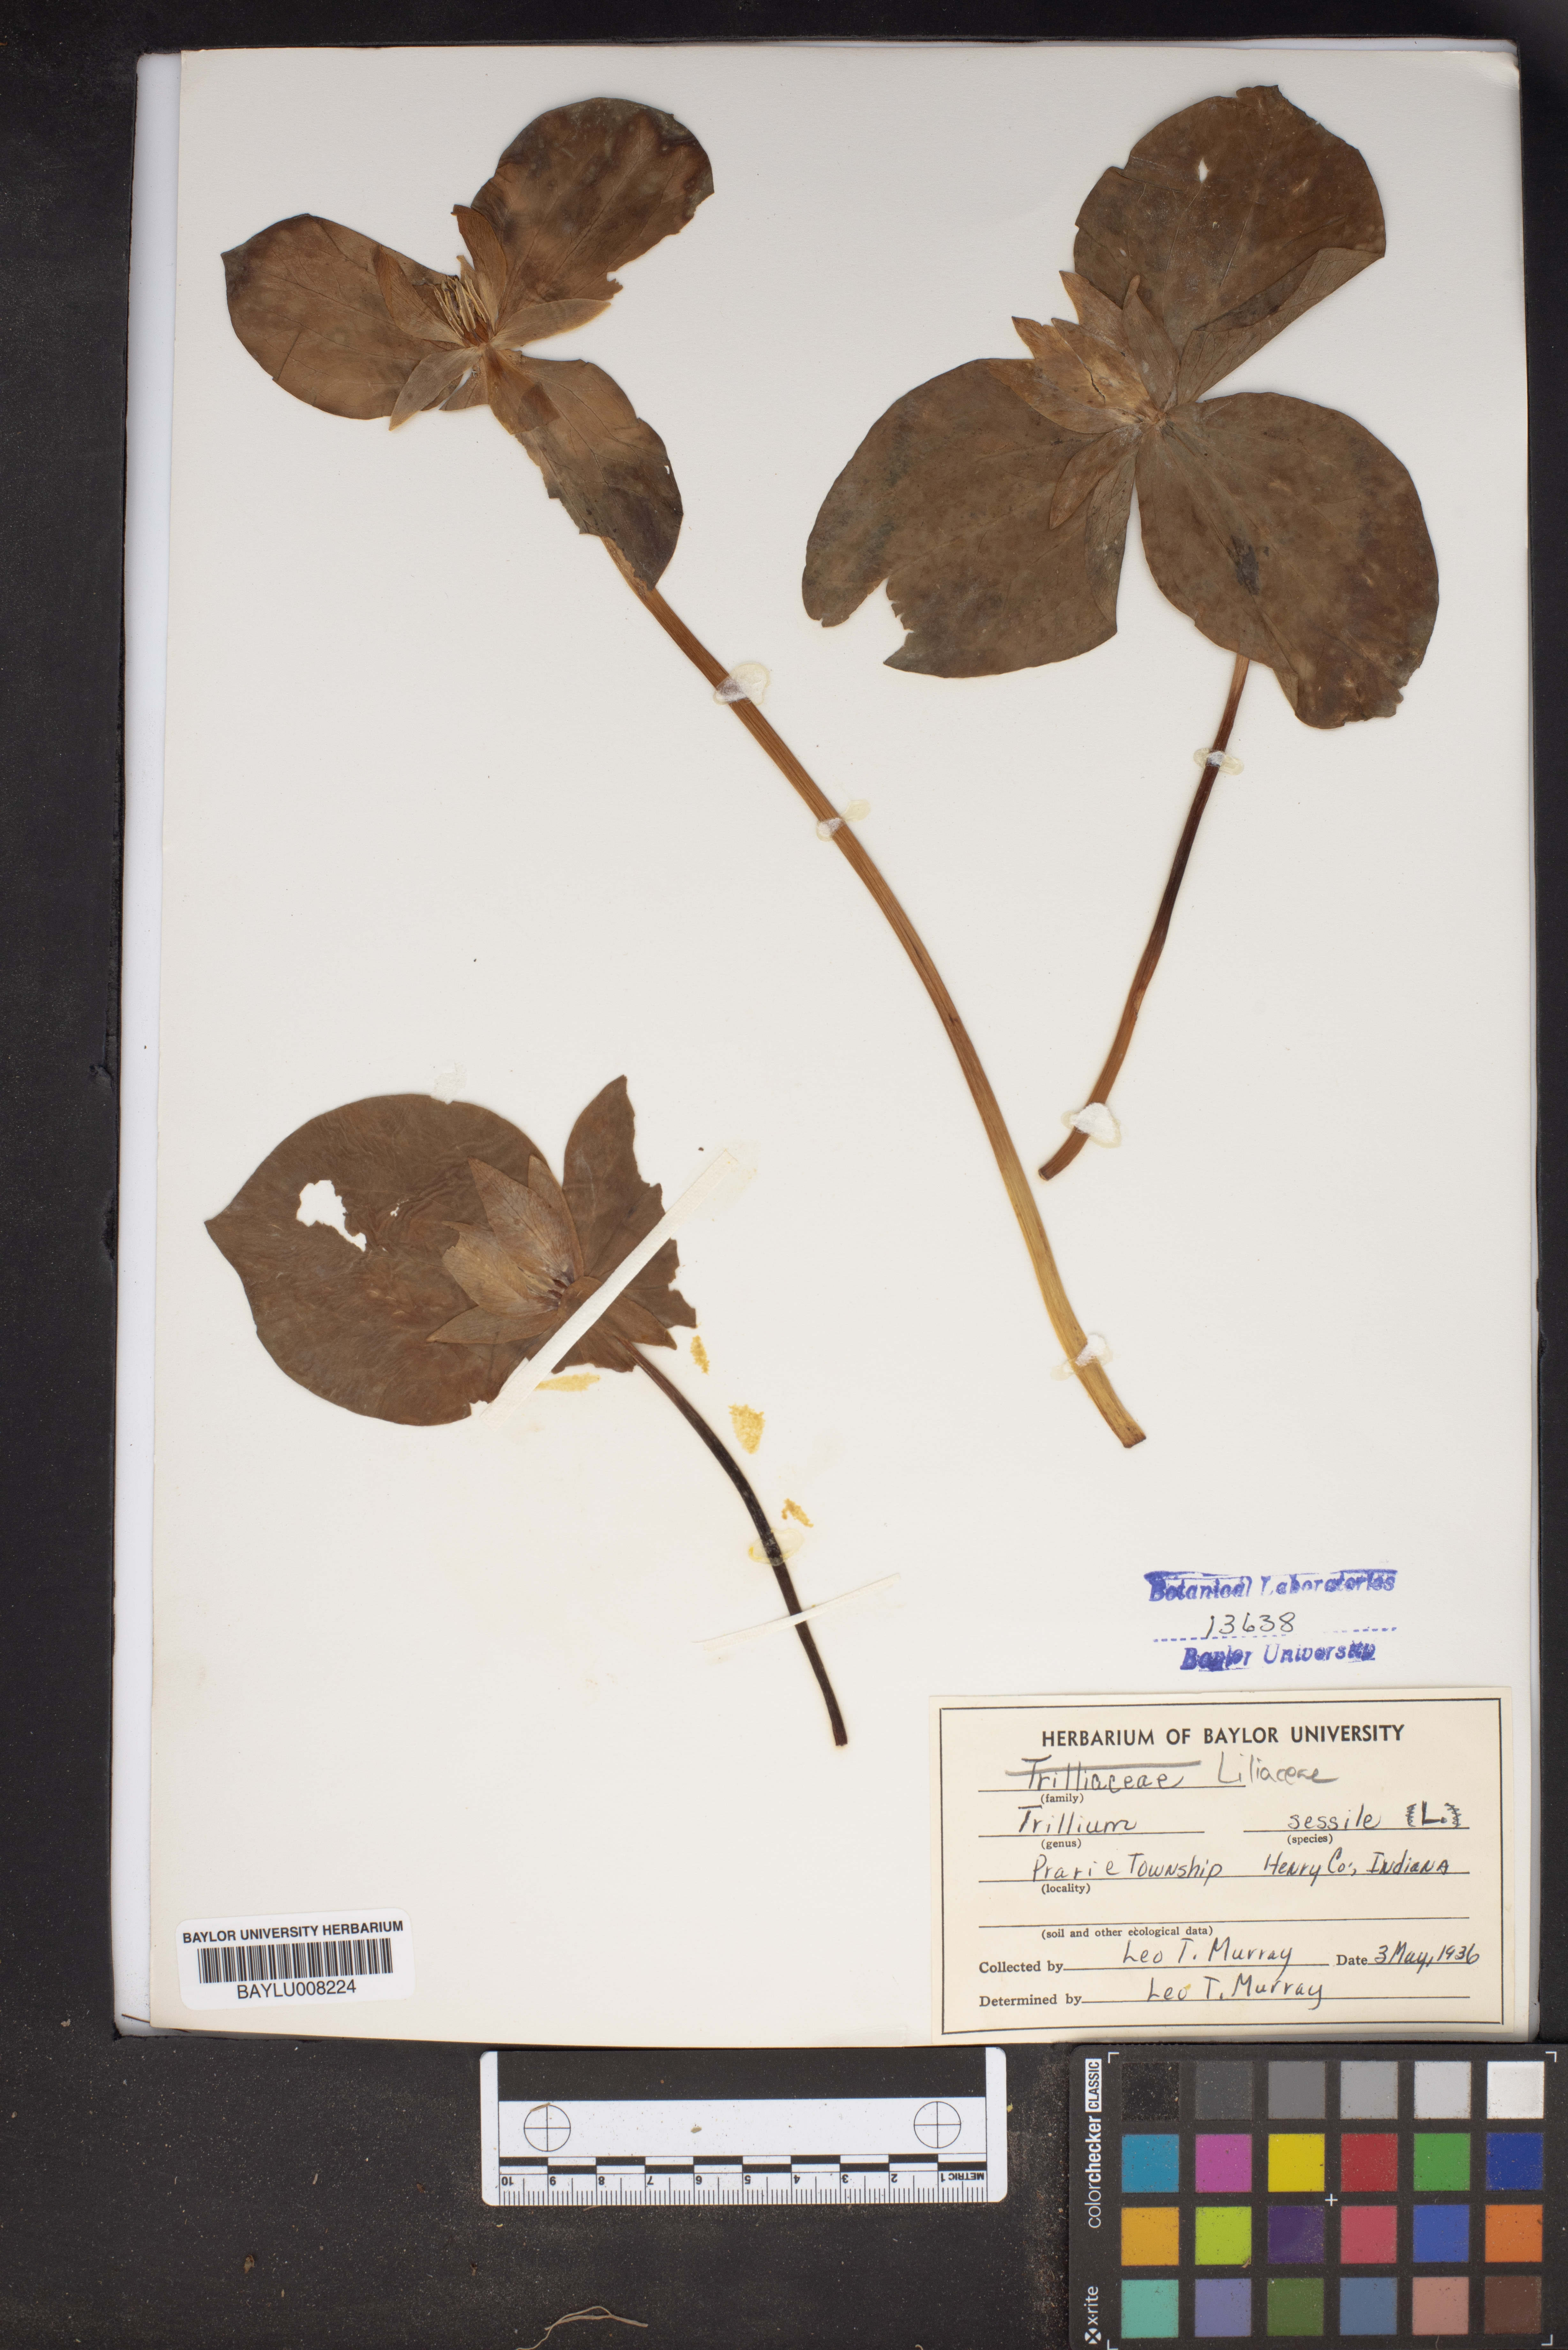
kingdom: Plantae
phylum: Tracheophyta
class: Liliopsida
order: Liliales
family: Melanthiaceae
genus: Trillium
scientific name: Trillium sessile
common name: Sessile trillium
